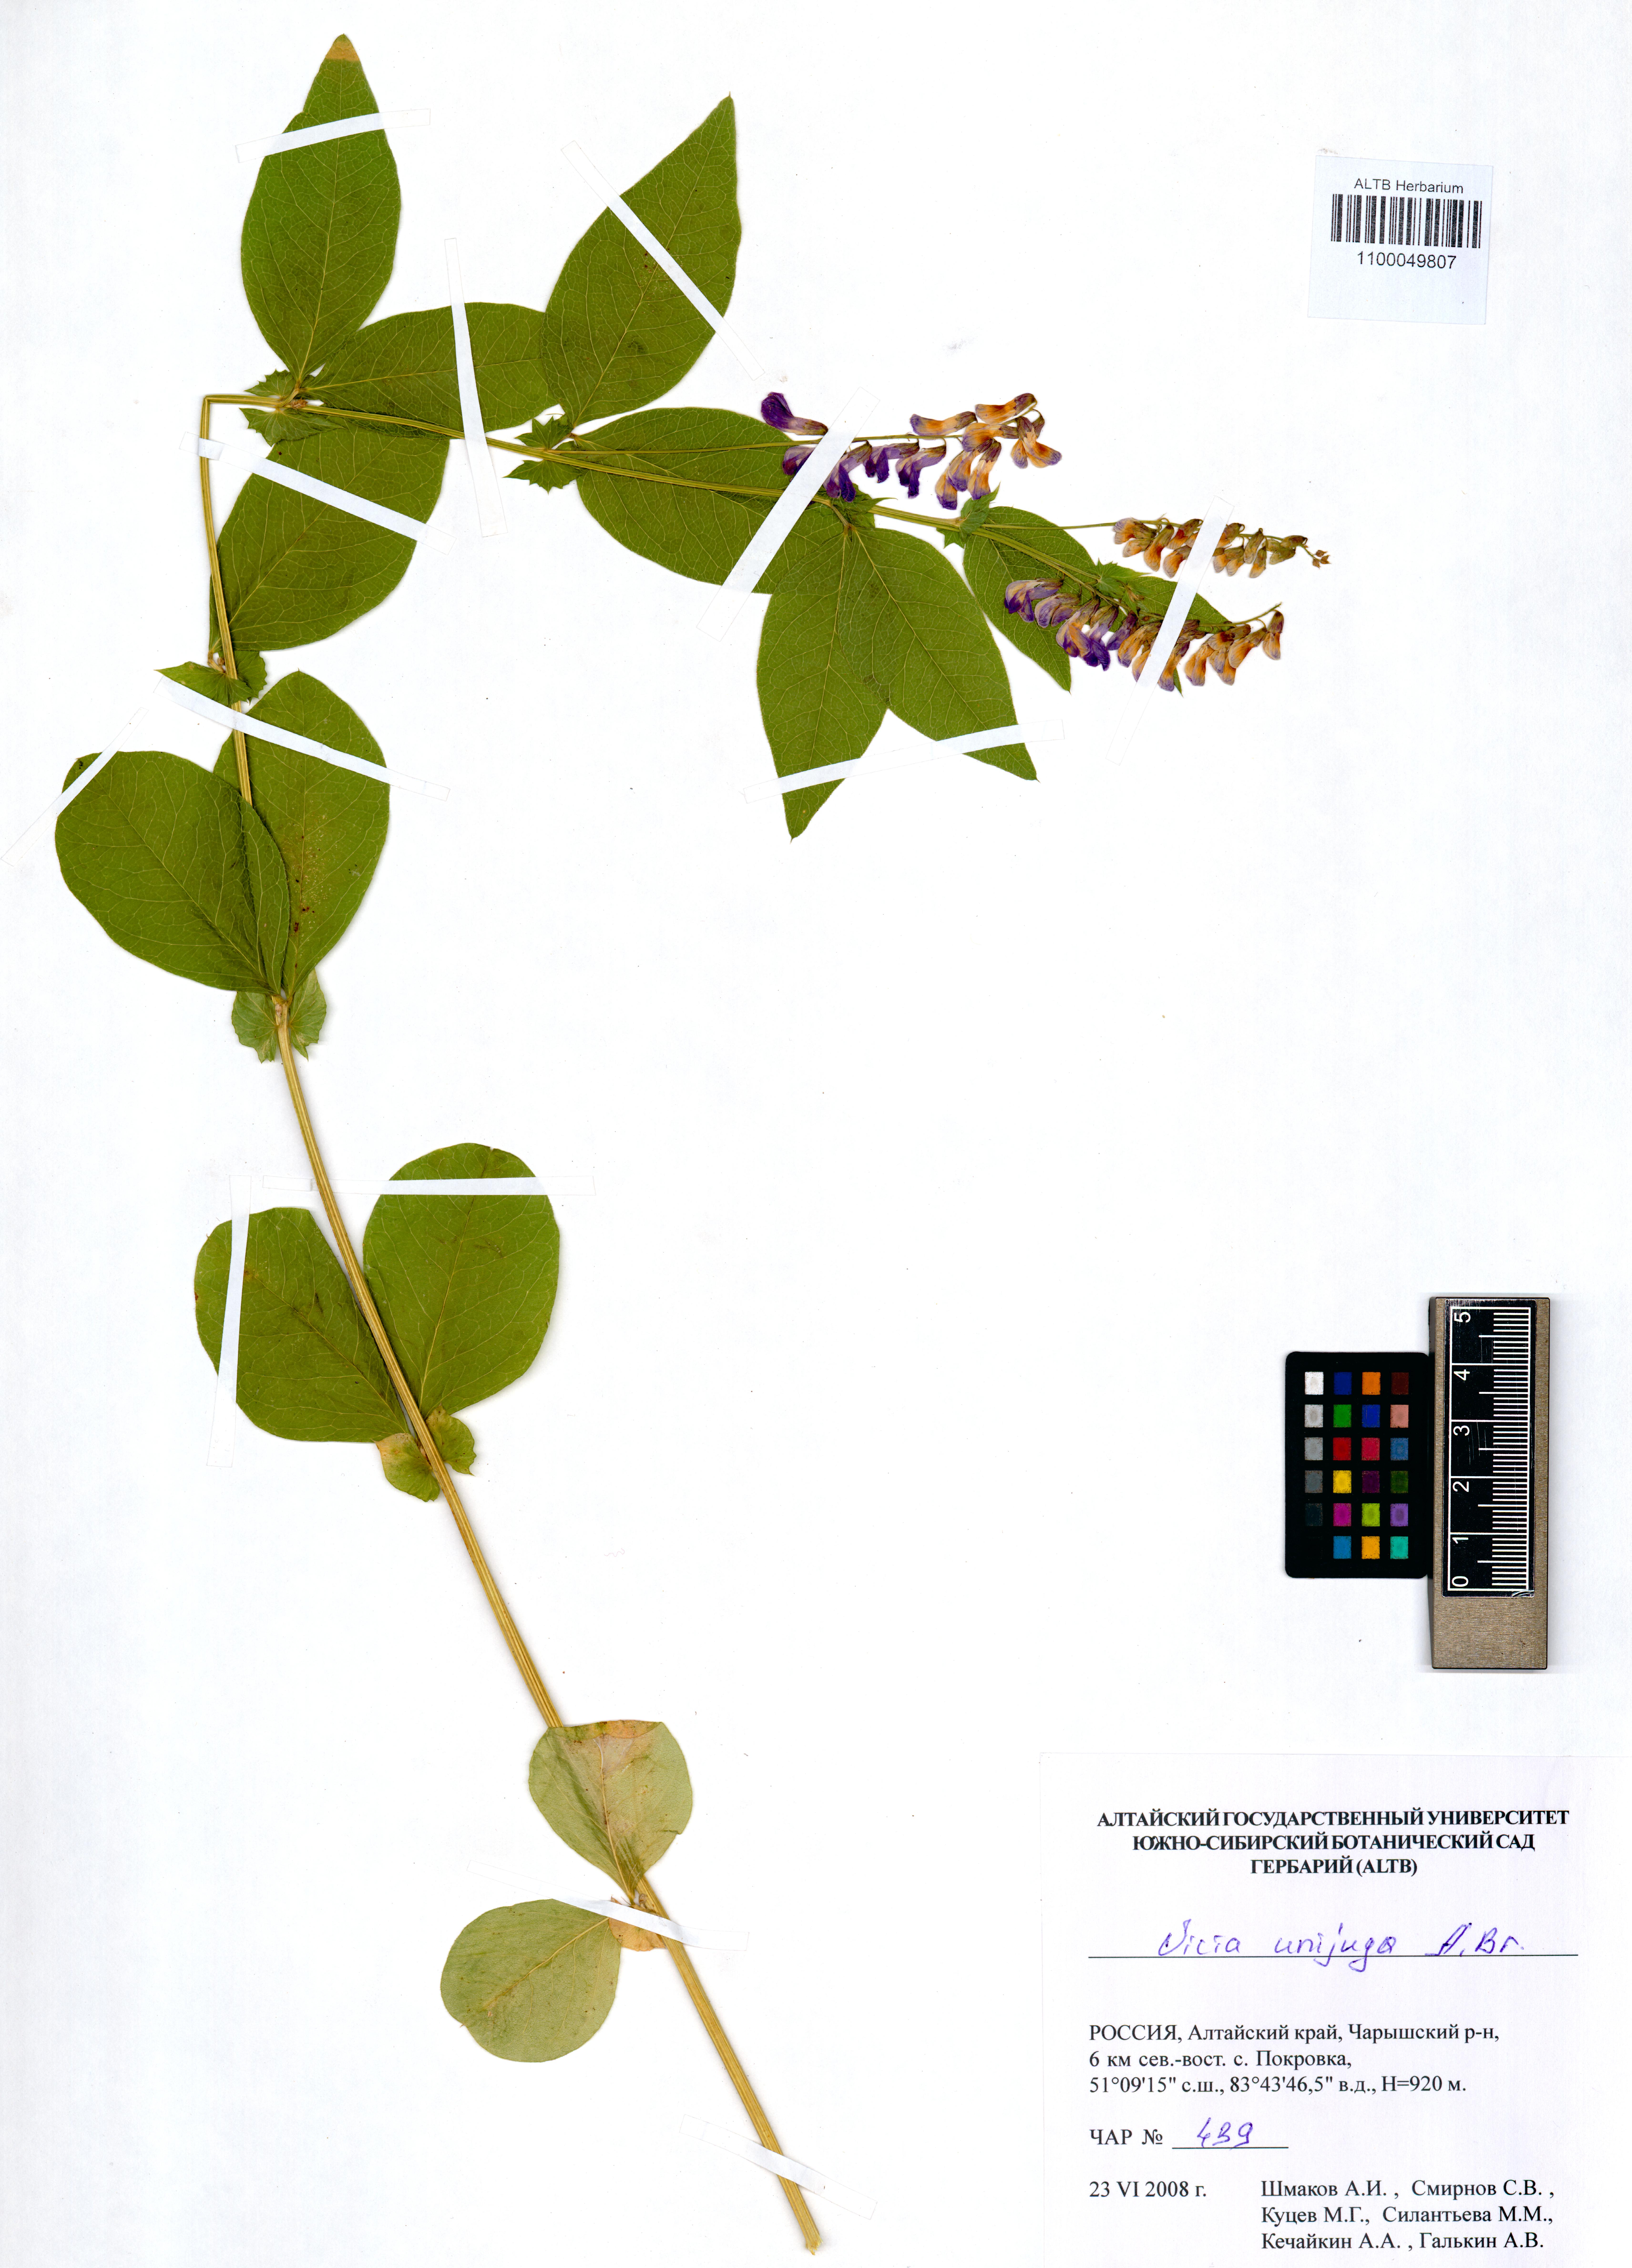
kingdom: Plantae
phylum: Tracheophyta
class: Magnoliopsida
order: Fabales
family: Fabaceae
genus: Vicia
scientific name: Vicia unijuga
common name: Two-leaf vetch
